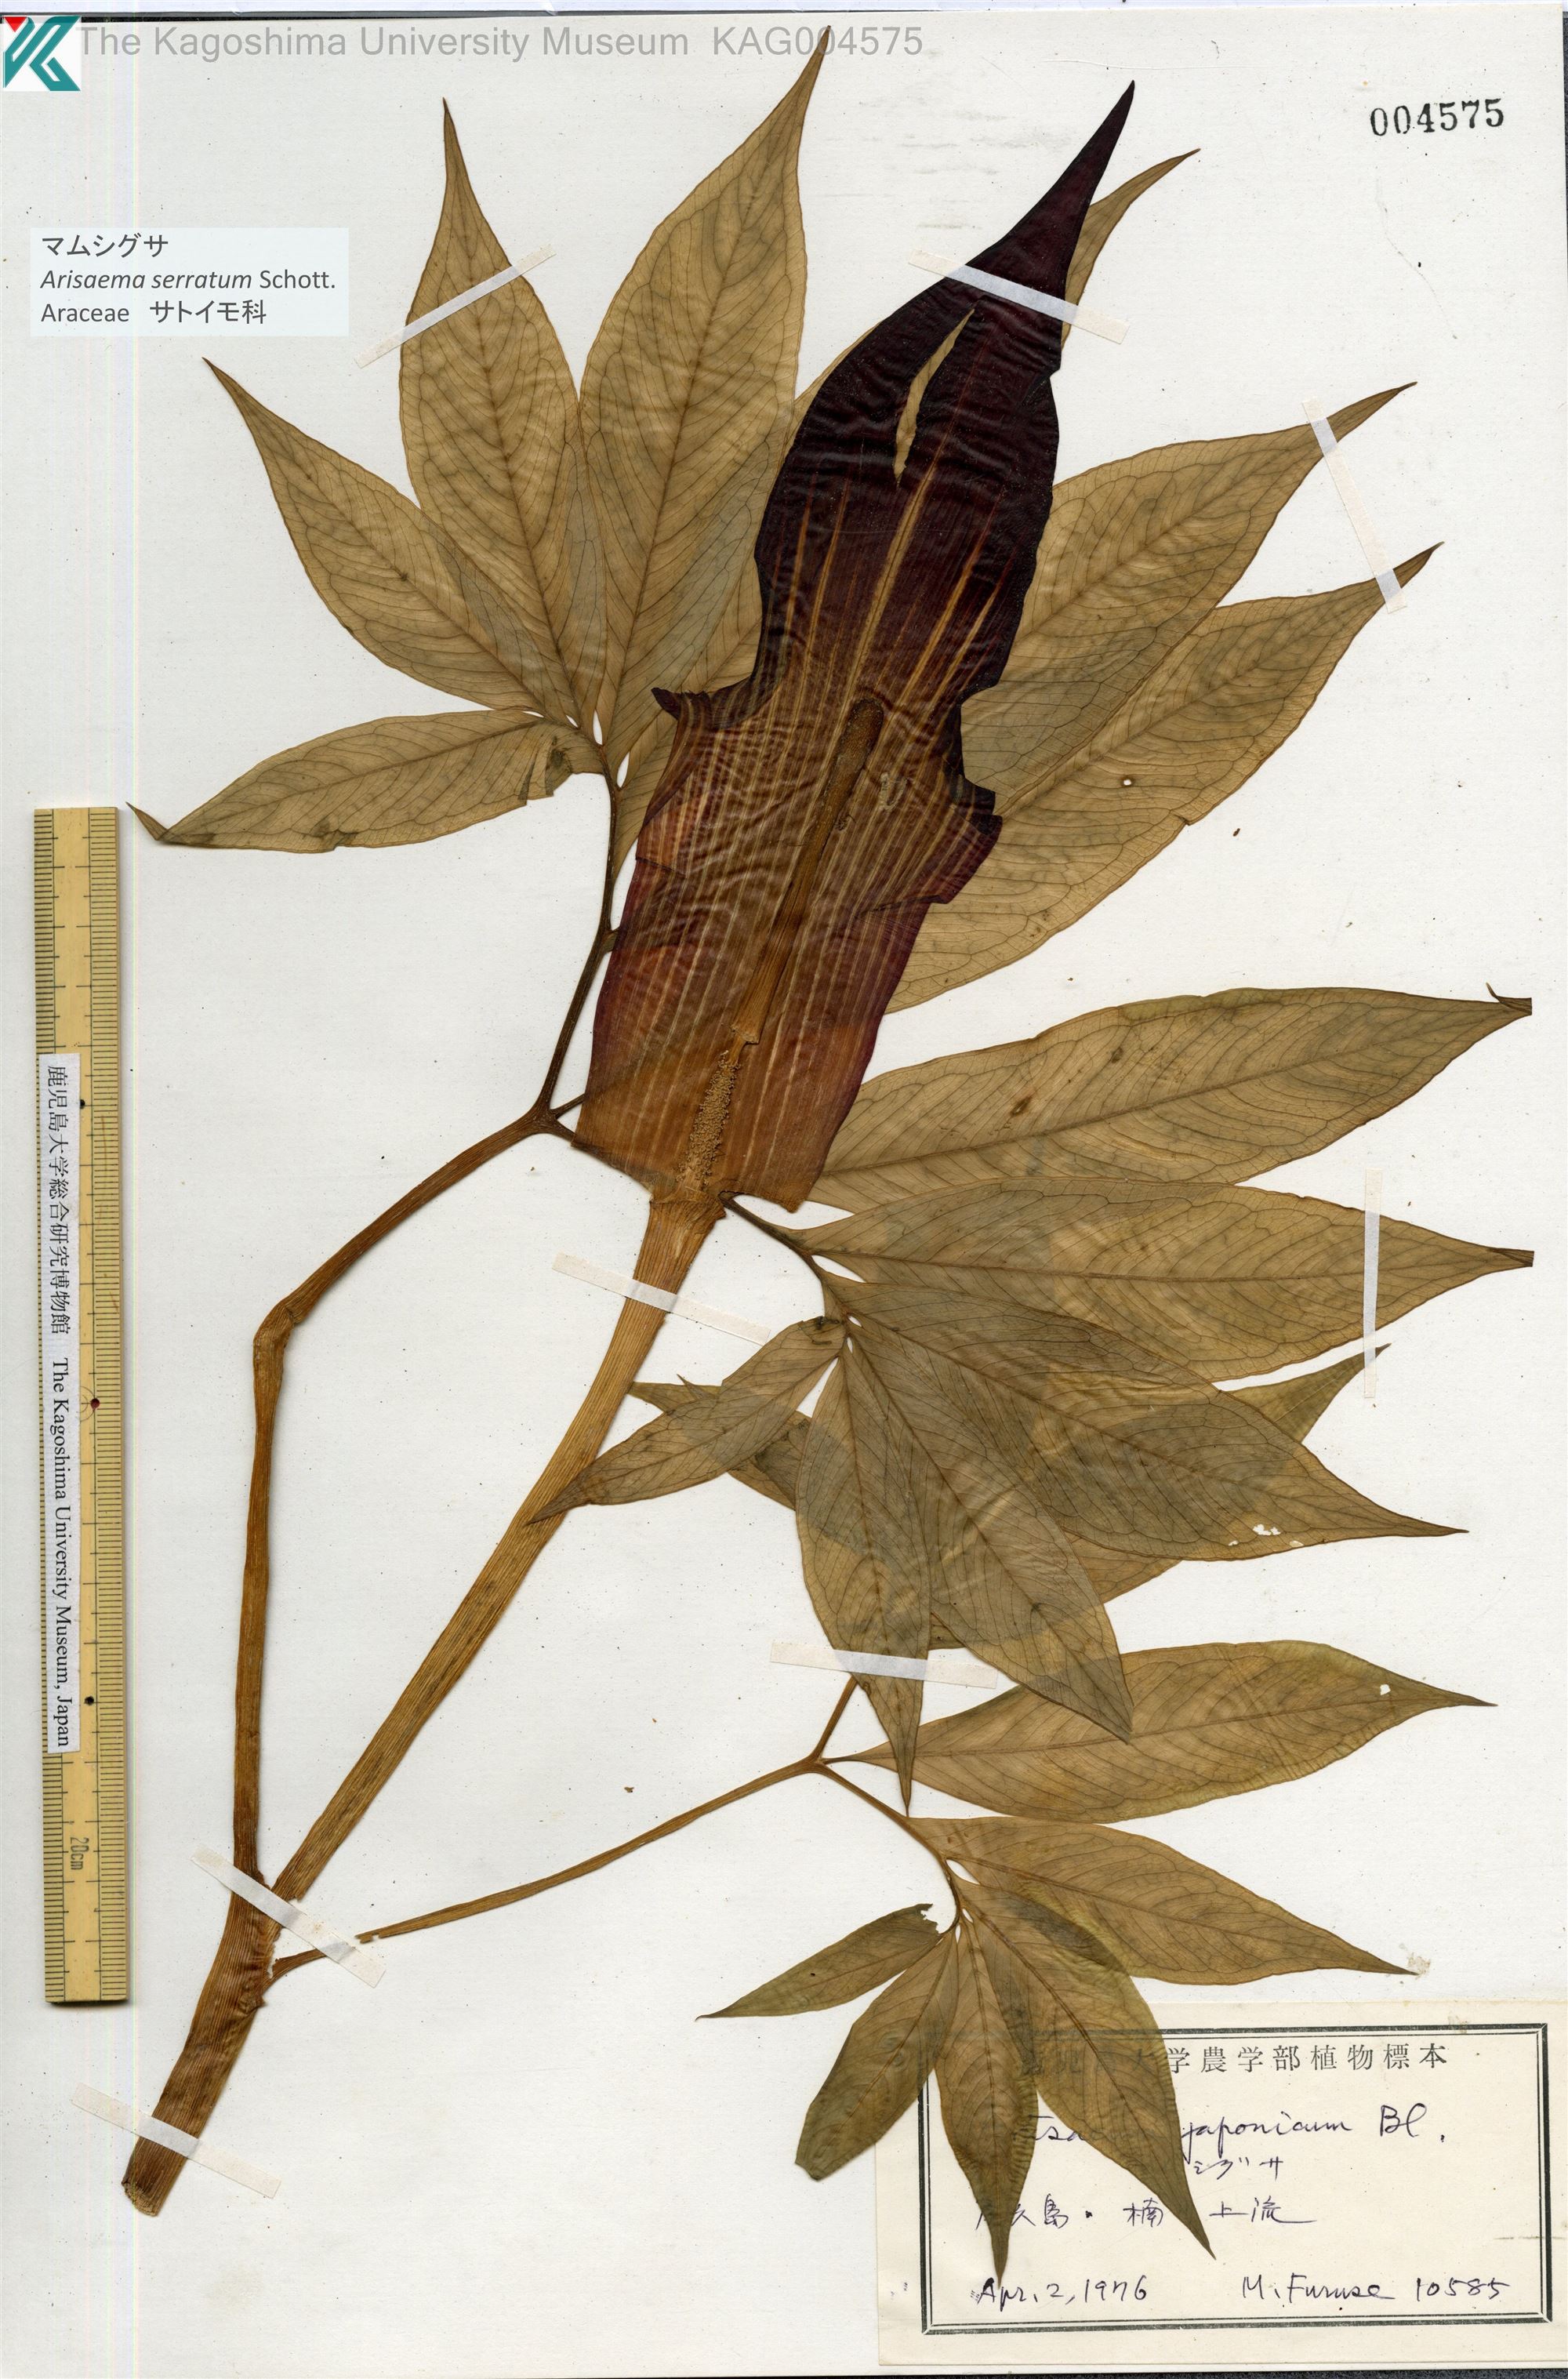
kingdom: Plantae
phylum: Tracheophyta
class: Liliopsida
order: Alismatales
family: Araceae
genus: Arisaema
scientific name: Arisaema serratum
